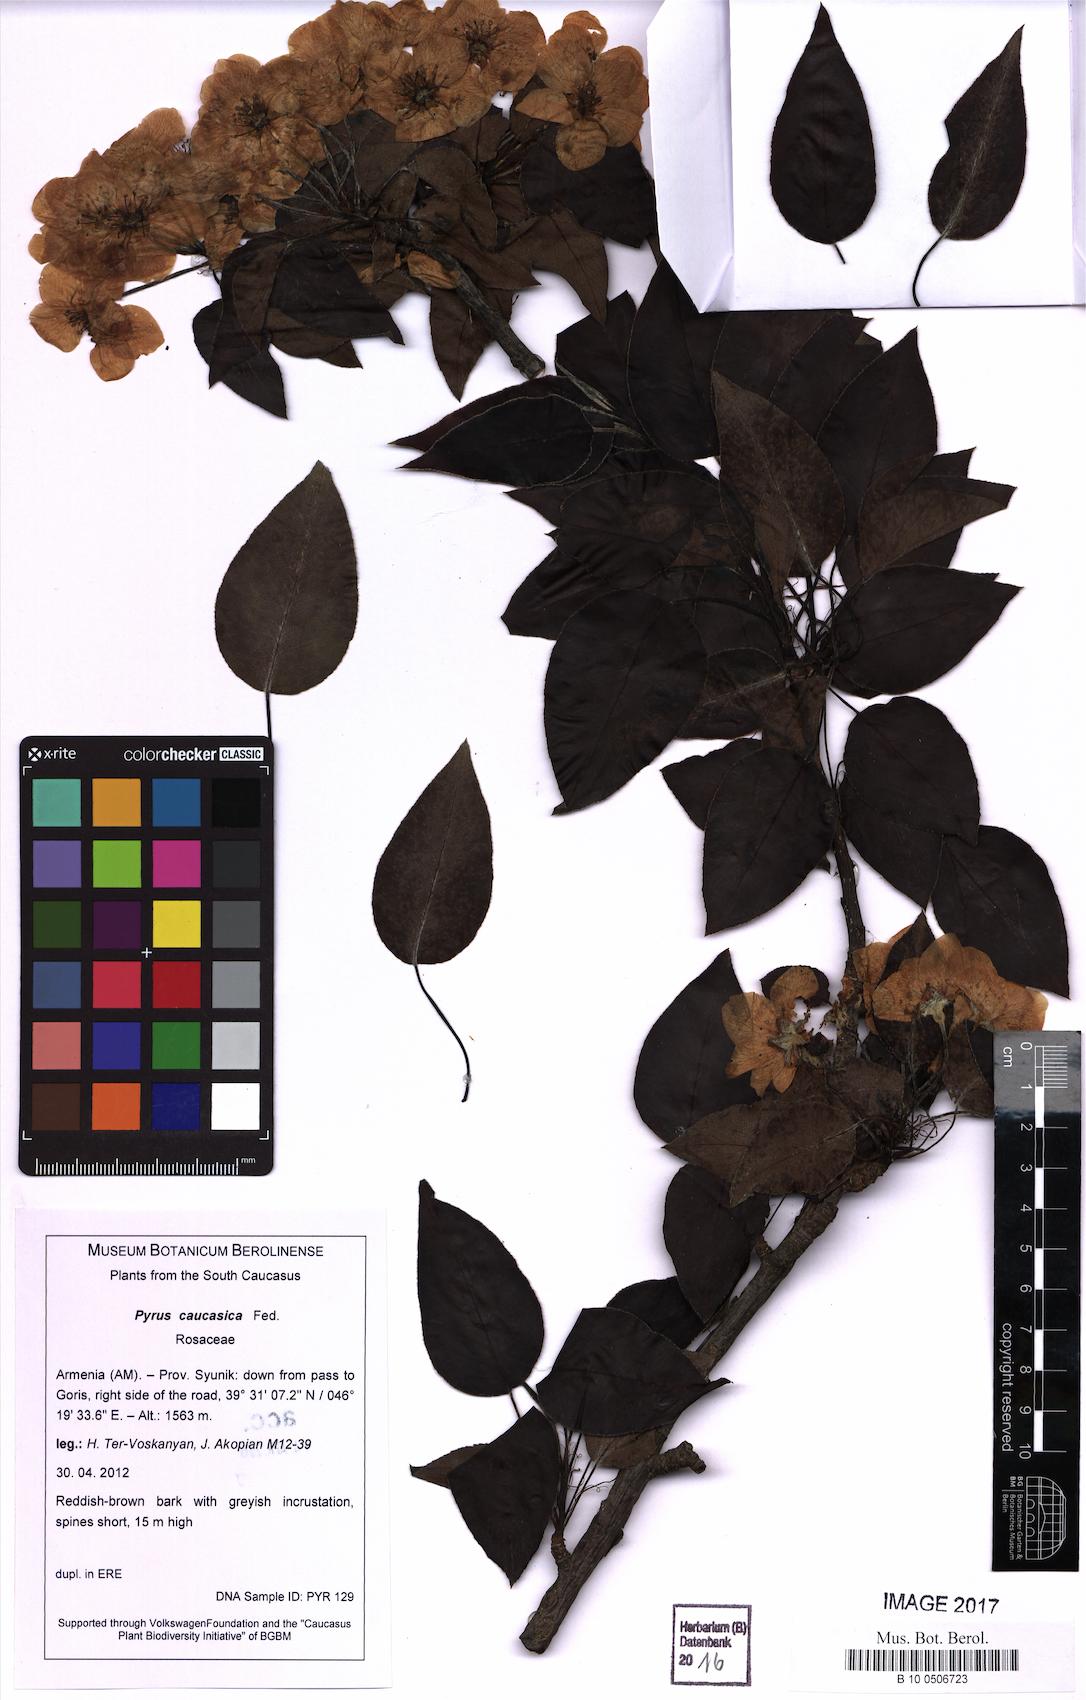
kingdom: Plantae
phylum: Tracheophyta
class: Magnoliopsida
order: Rosales
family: Rosaceae
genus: Pyrus
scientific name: Pyrus communis
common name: Pear
